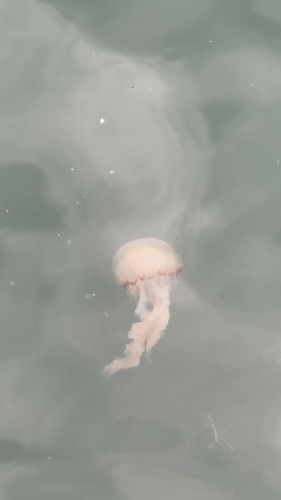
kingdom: Animalia
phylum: Cnidaria
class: Scyphozoa
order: Semaeostomeae
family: Pelagiidae
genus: Chrysaora
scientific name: Chrysaora chinensis
